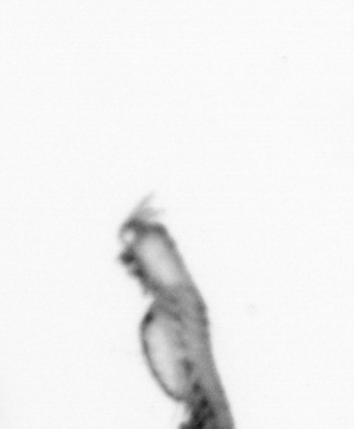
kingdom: Animalia
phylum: Annelida
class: Polychaeta
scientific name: Polychaeta
